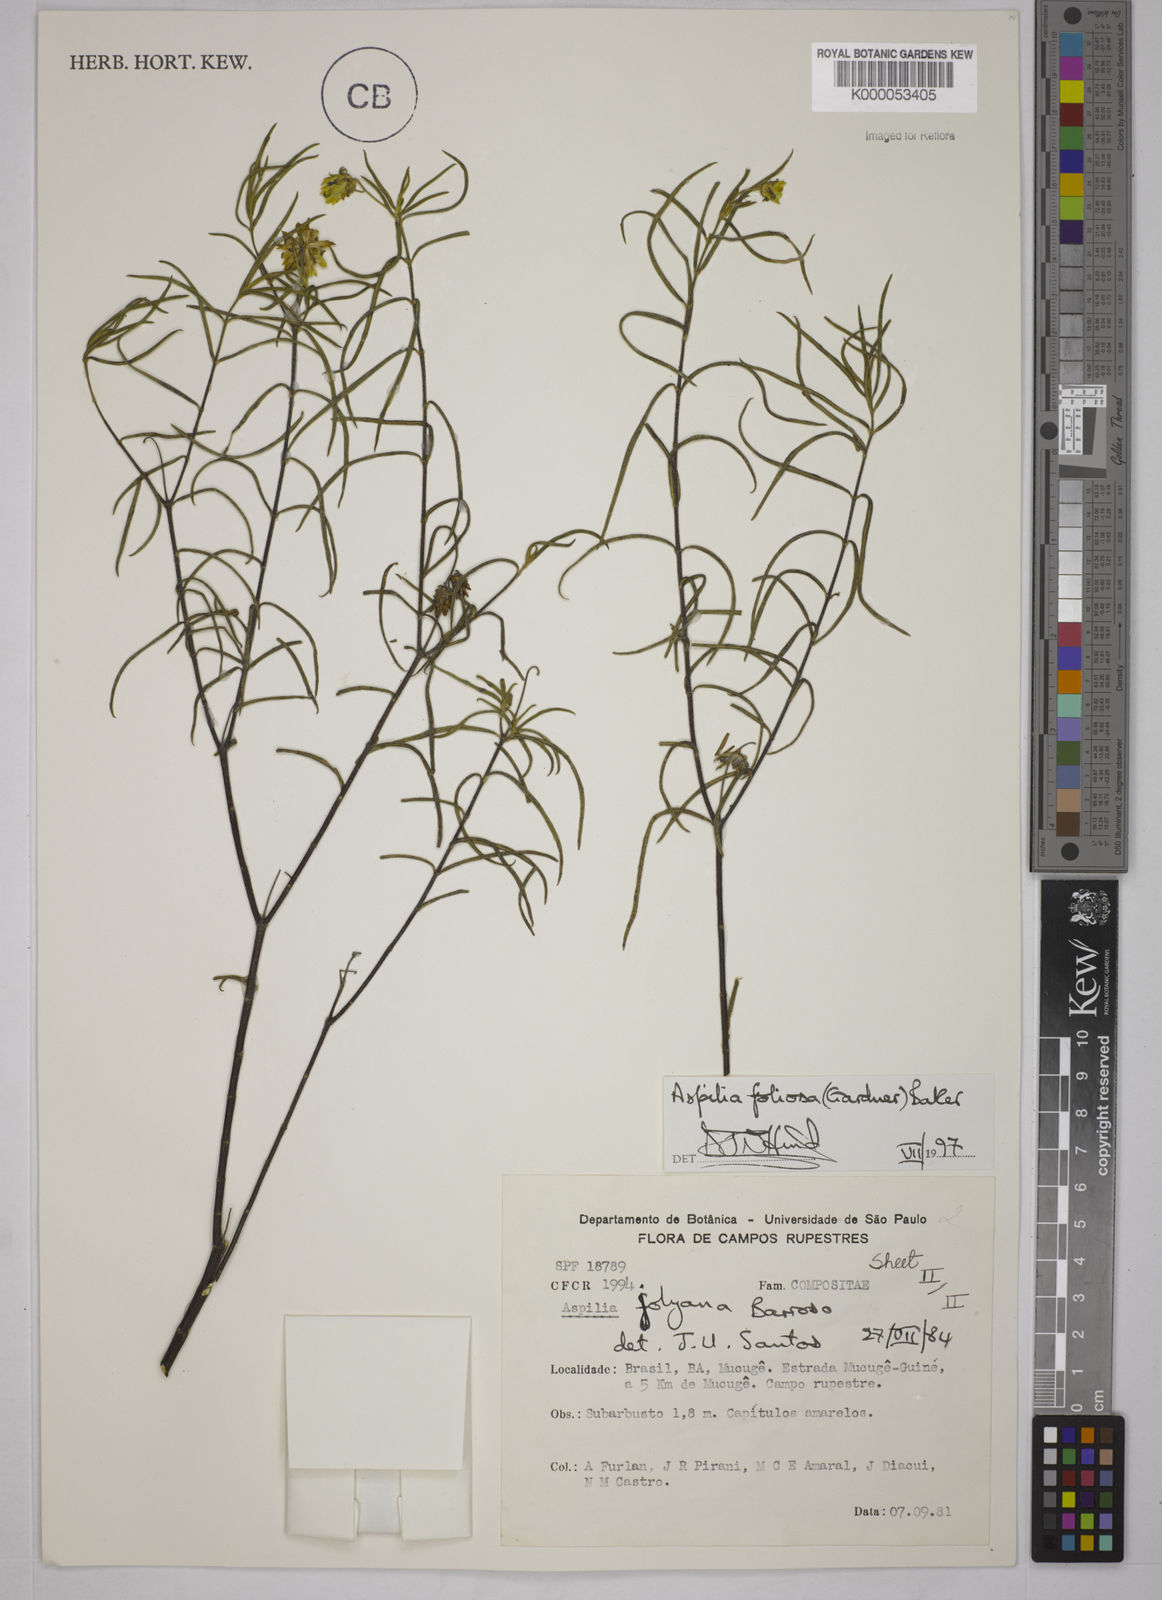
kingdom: Plantae
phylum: Tracheophyta
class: Magnoliopsida
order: Asterales
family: Asteraceae
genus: Aspilia
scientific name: Aspilia
